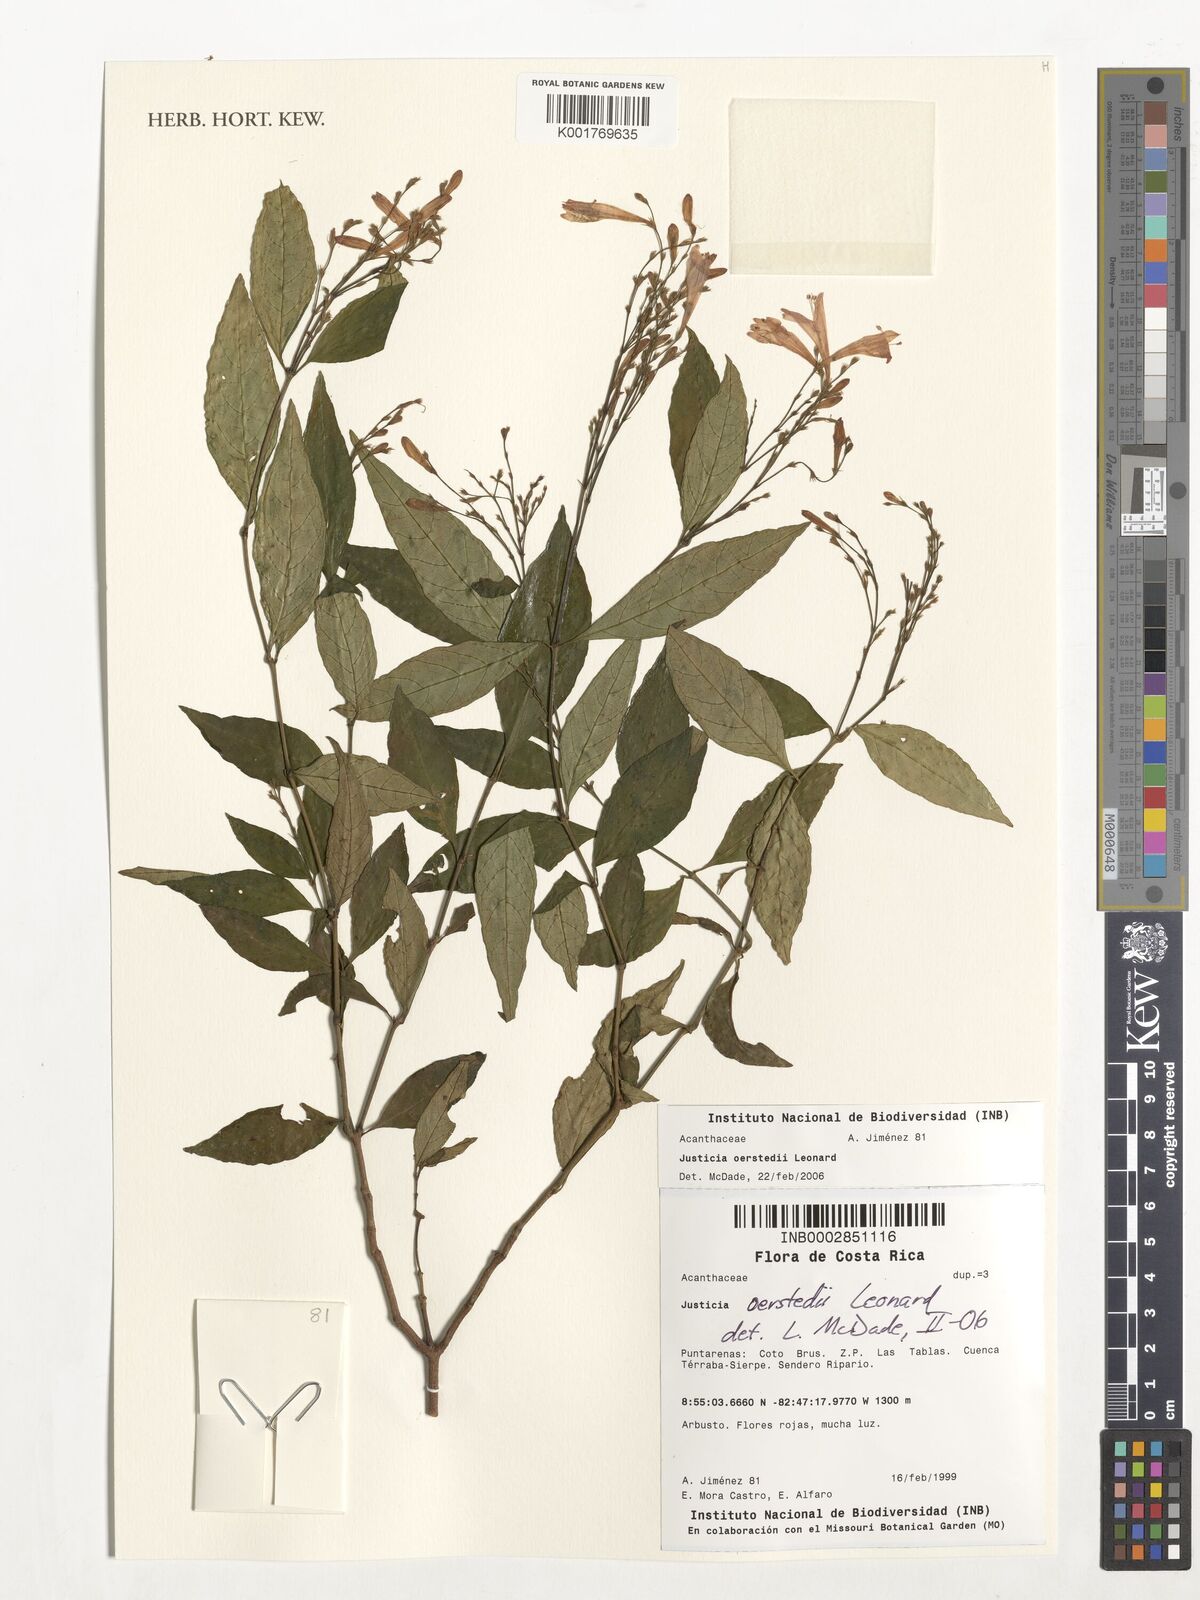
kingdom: Plantae
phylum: Tracheophyta
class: Magnoliopsida
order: Lamiales
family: Acanthaceae
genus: Dianthera
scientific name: Dianthera glabra
